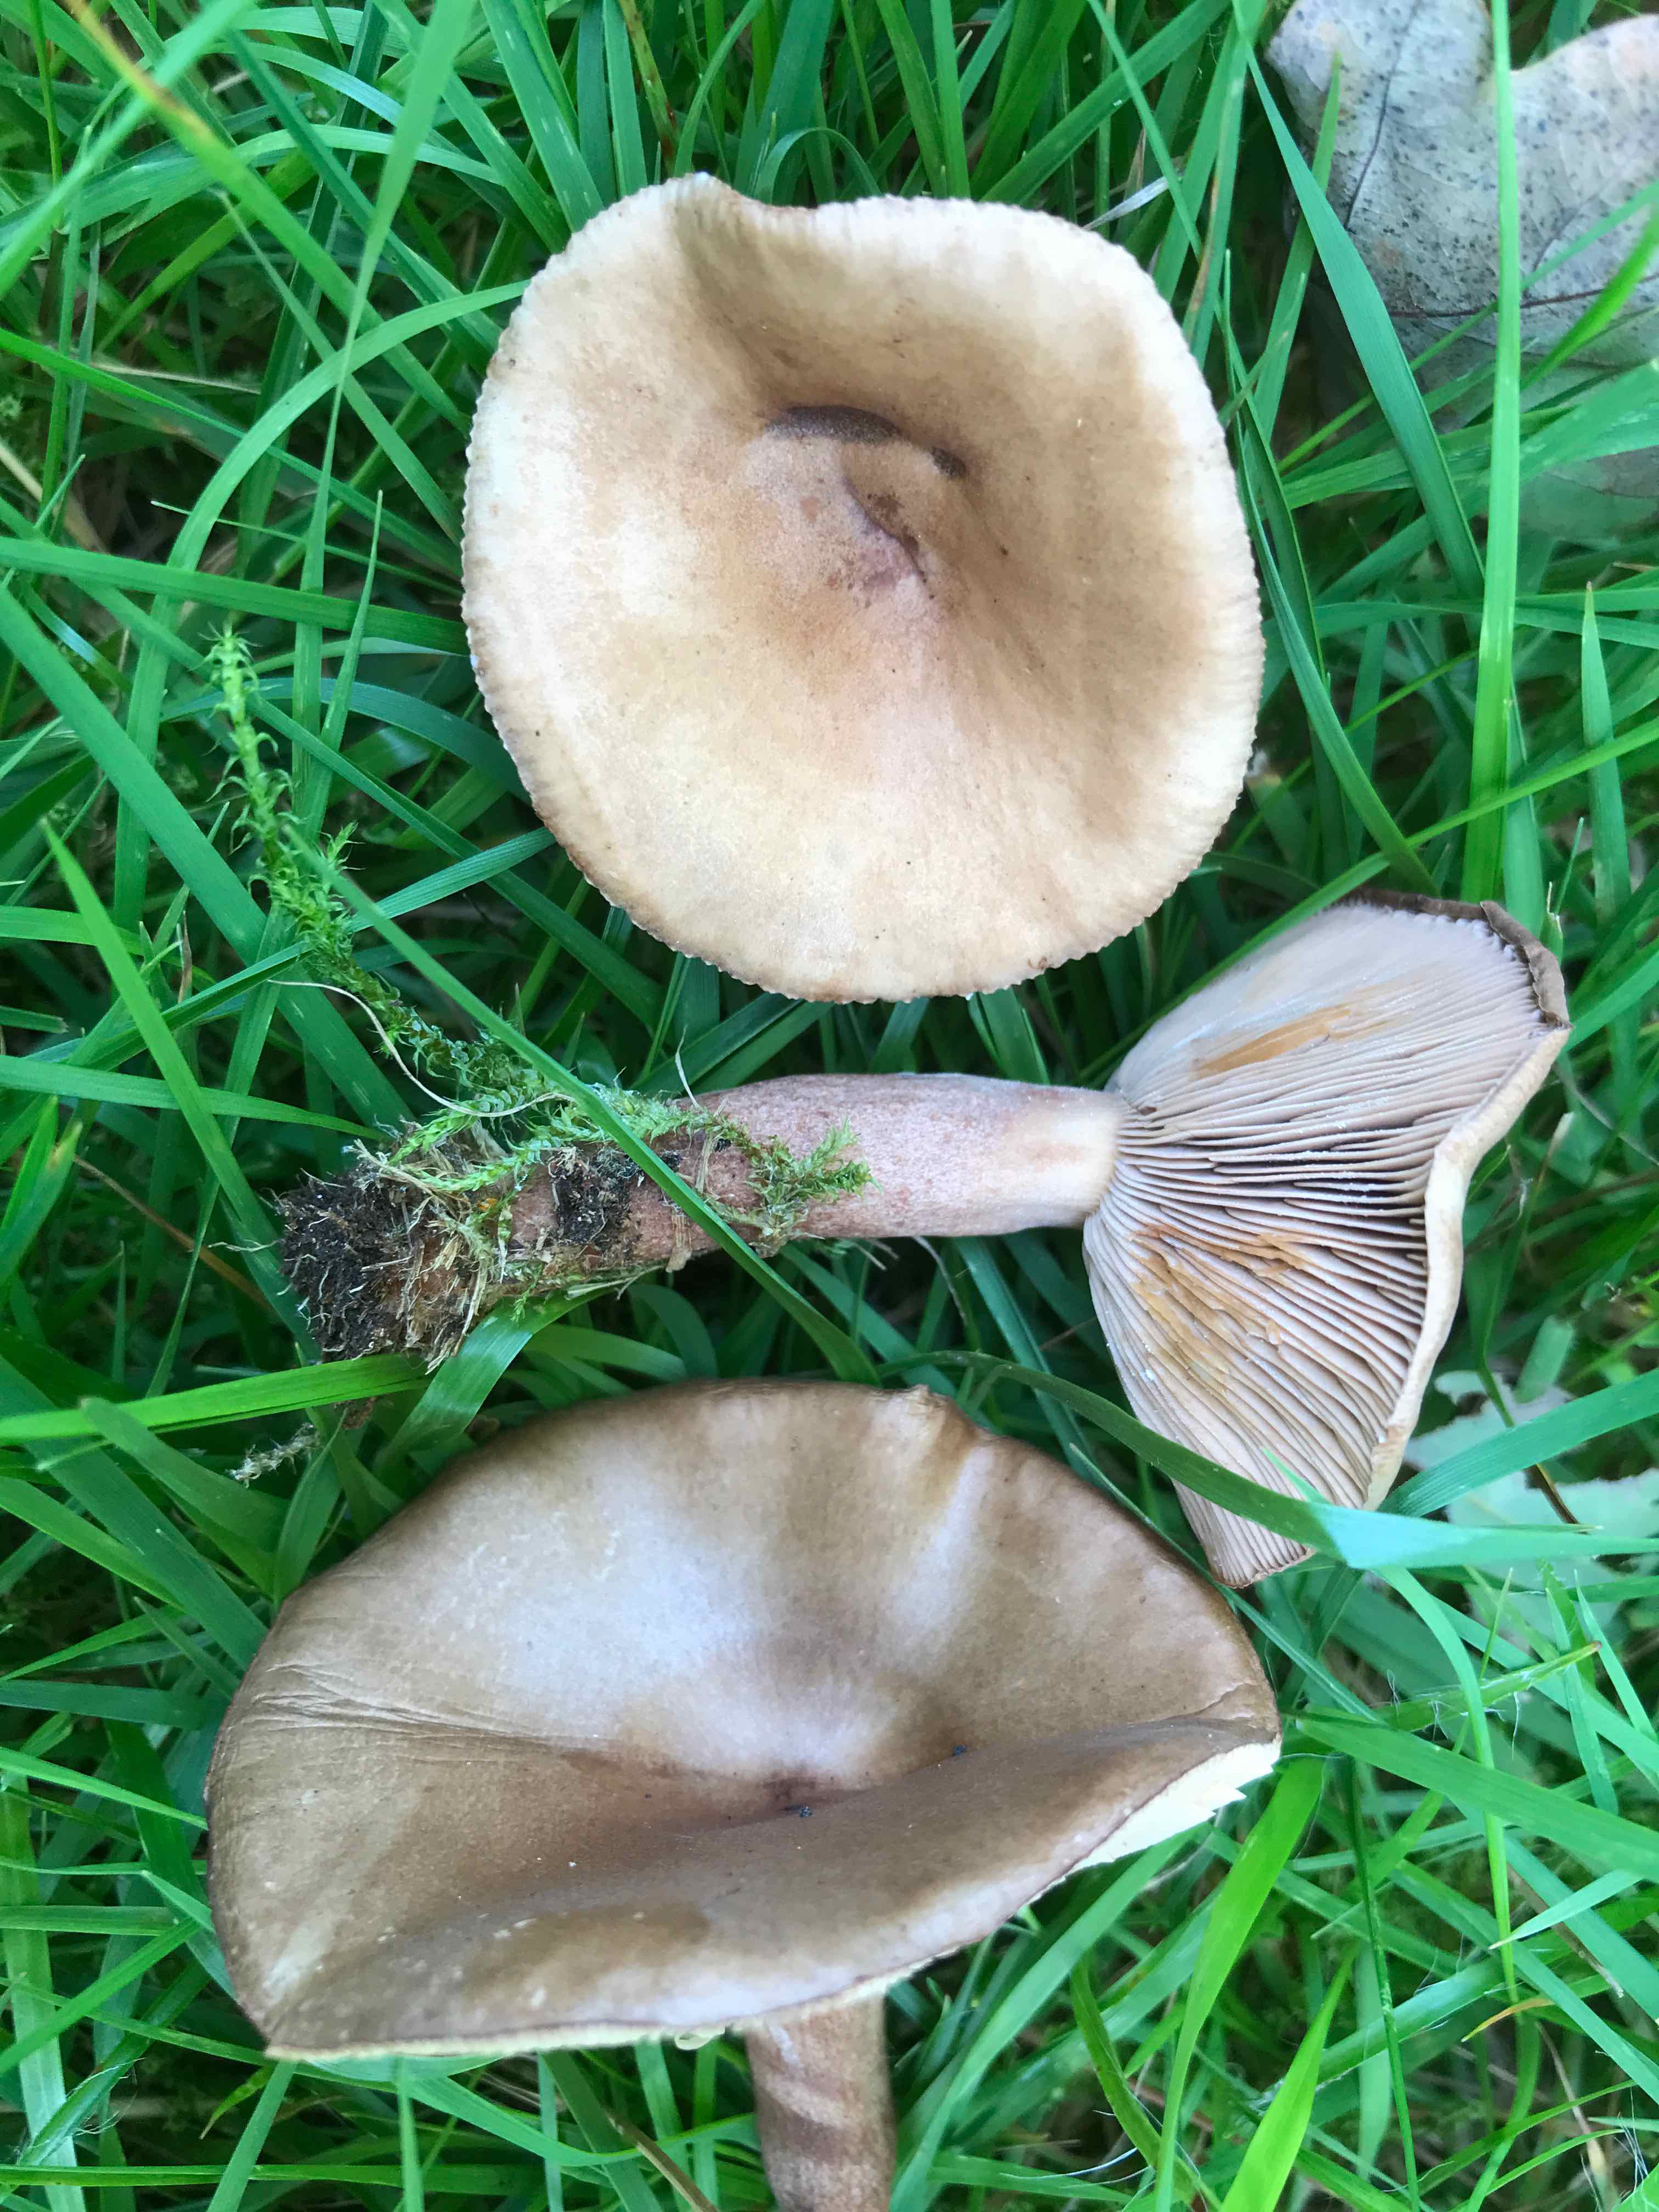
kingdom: Fungi
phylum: Basidiomycota
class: Agaricomycetes
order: Russulales
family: Russulaceae
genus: Lactarius
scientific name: Lactarius subdulcis
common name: sødlig mælkehat
